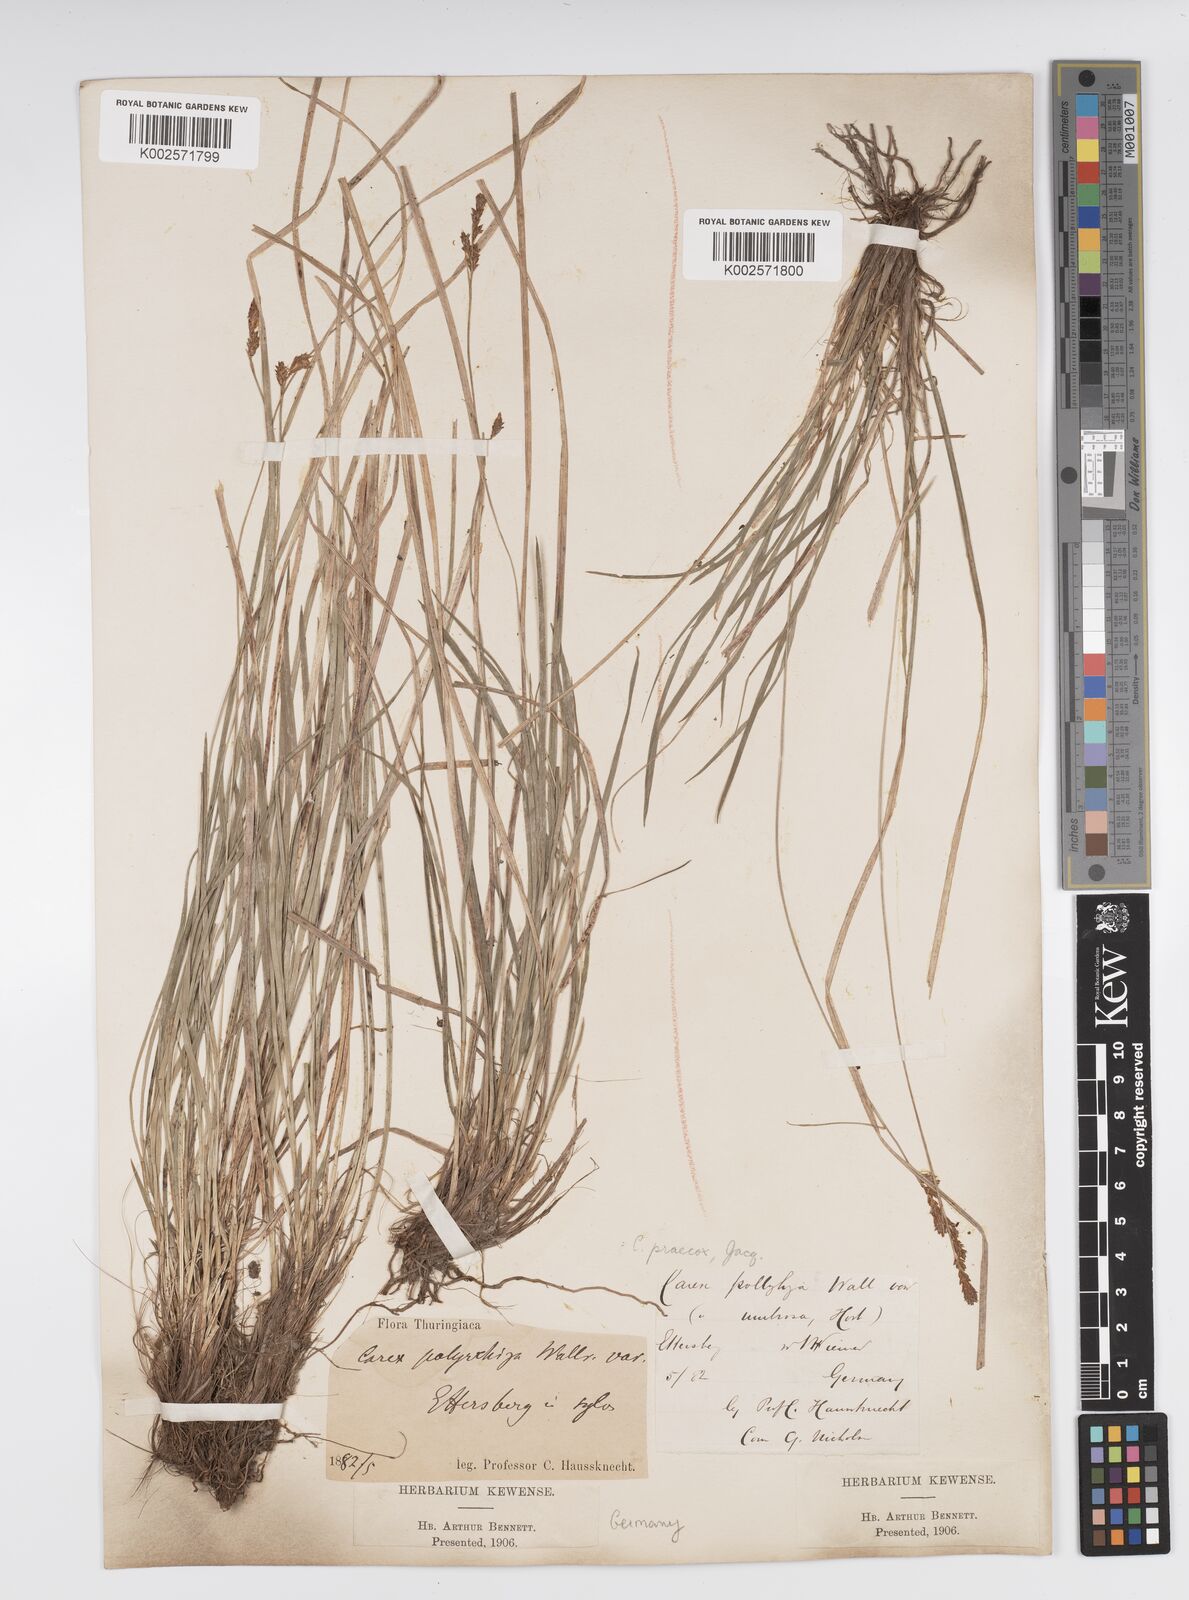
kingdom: Plantae
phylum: Tracheophyta
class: Liliopsida
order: Poales
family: Cyperaceae
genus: Carex
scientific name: Carex umbrosa
